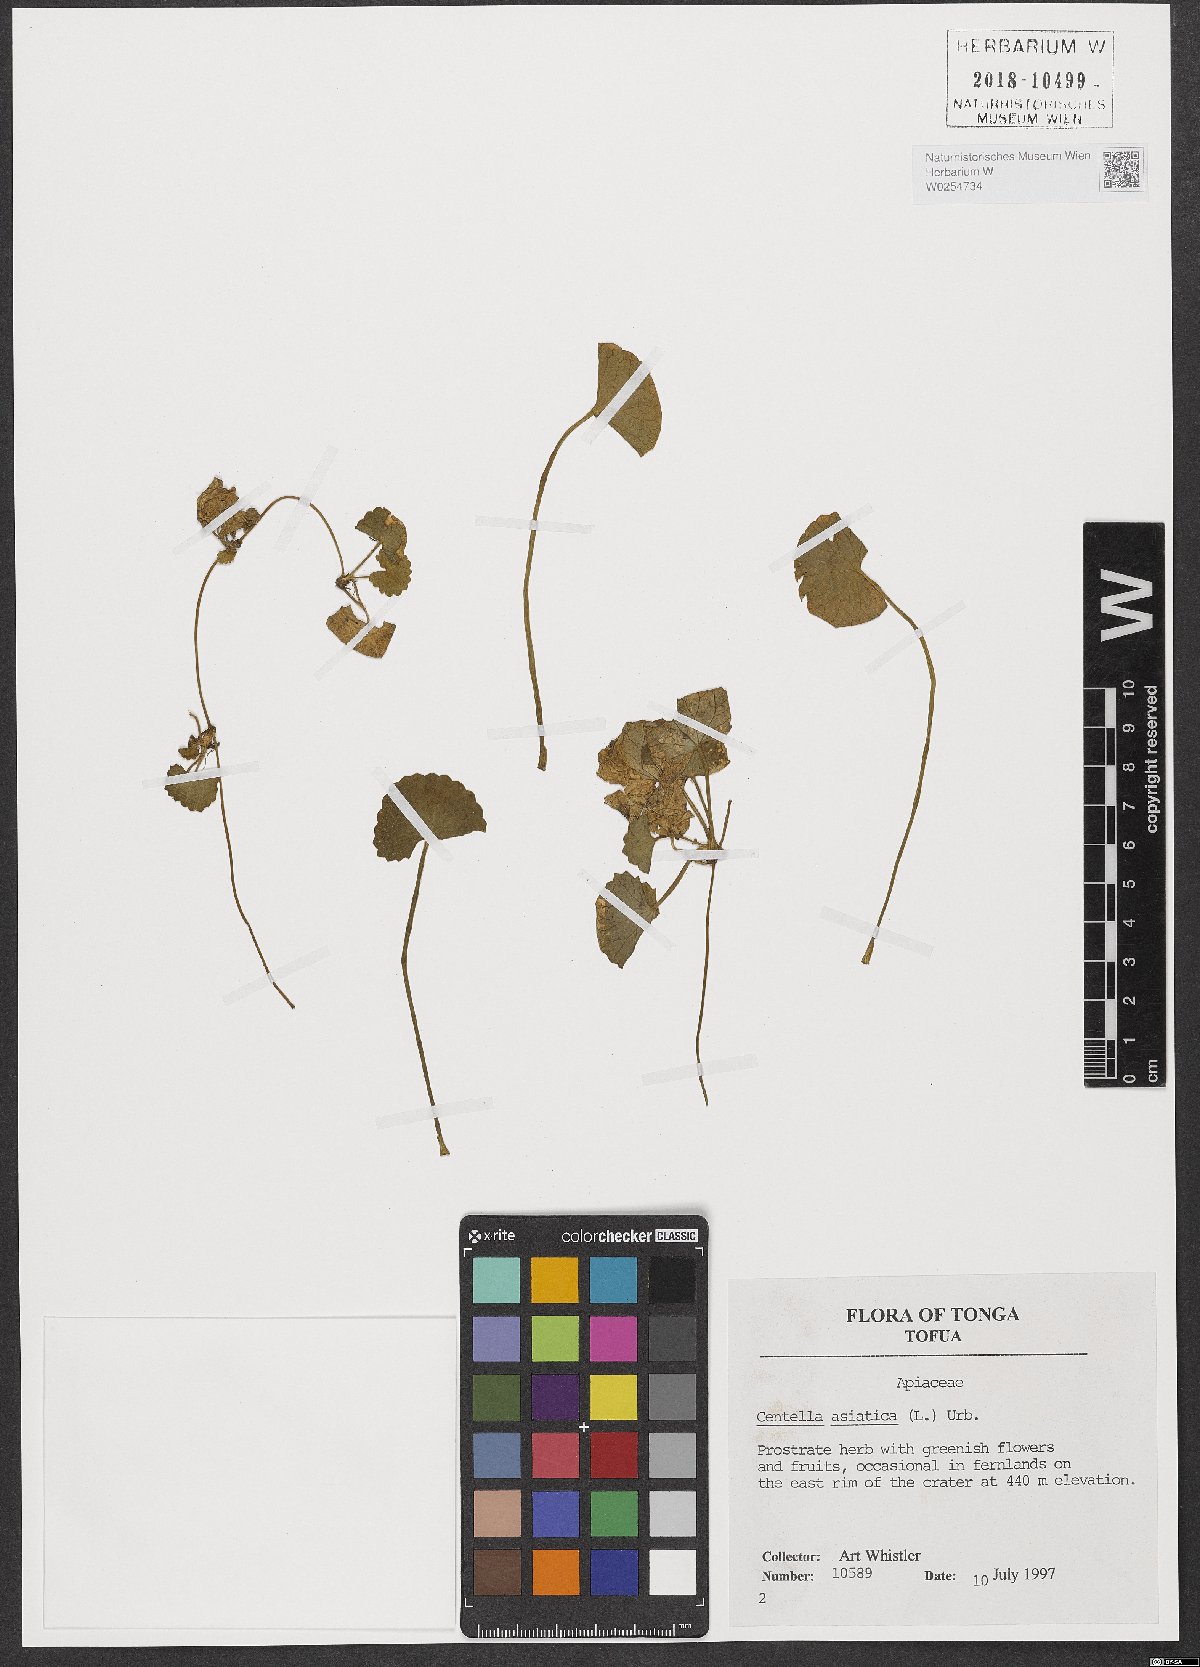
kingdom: Plantae
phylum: Tracheophyta
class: Magnoliopsida
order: Apiales
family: Apiaceae
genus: Centella
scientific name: Centella asiatica
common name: Spadeleaf
